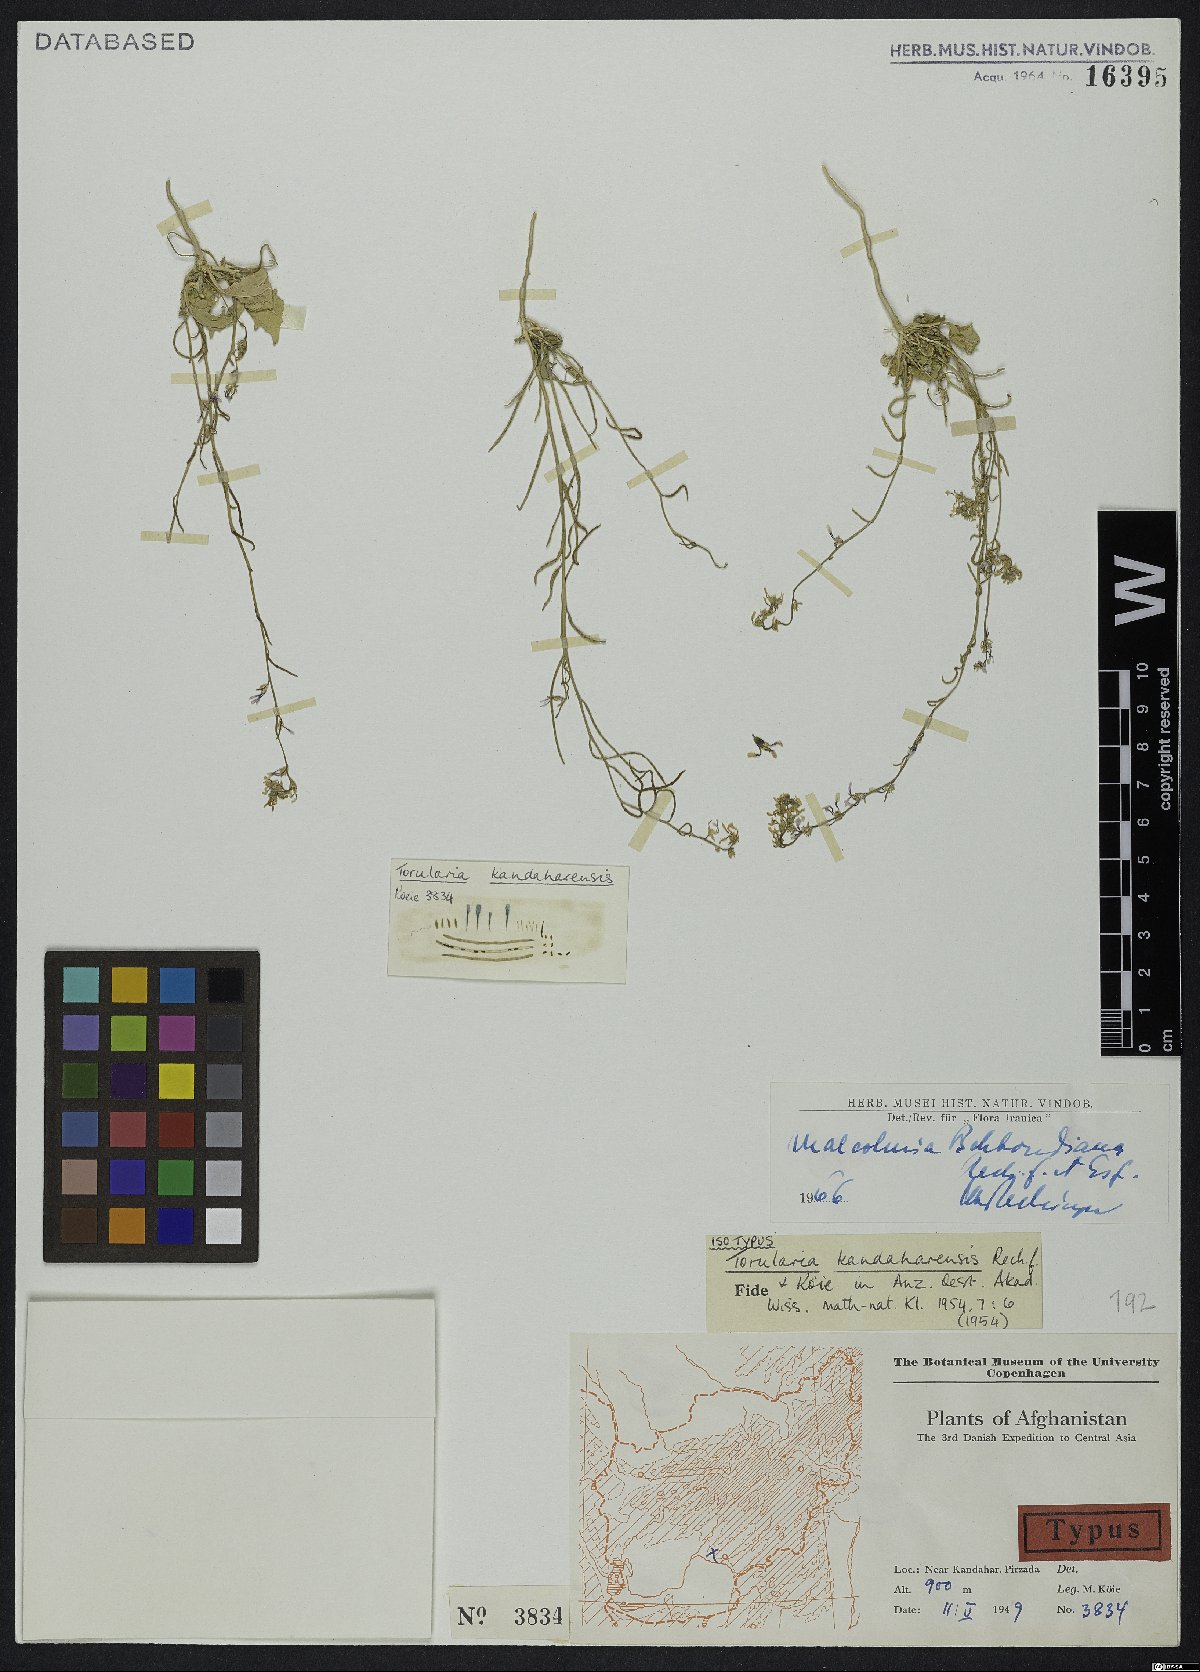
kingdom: Plantae
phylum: Tracheophyta
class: Magnoliopsida
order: Brassicales
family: Brassicaceae
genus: Strigosella
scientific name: Strigosella behboudiana
